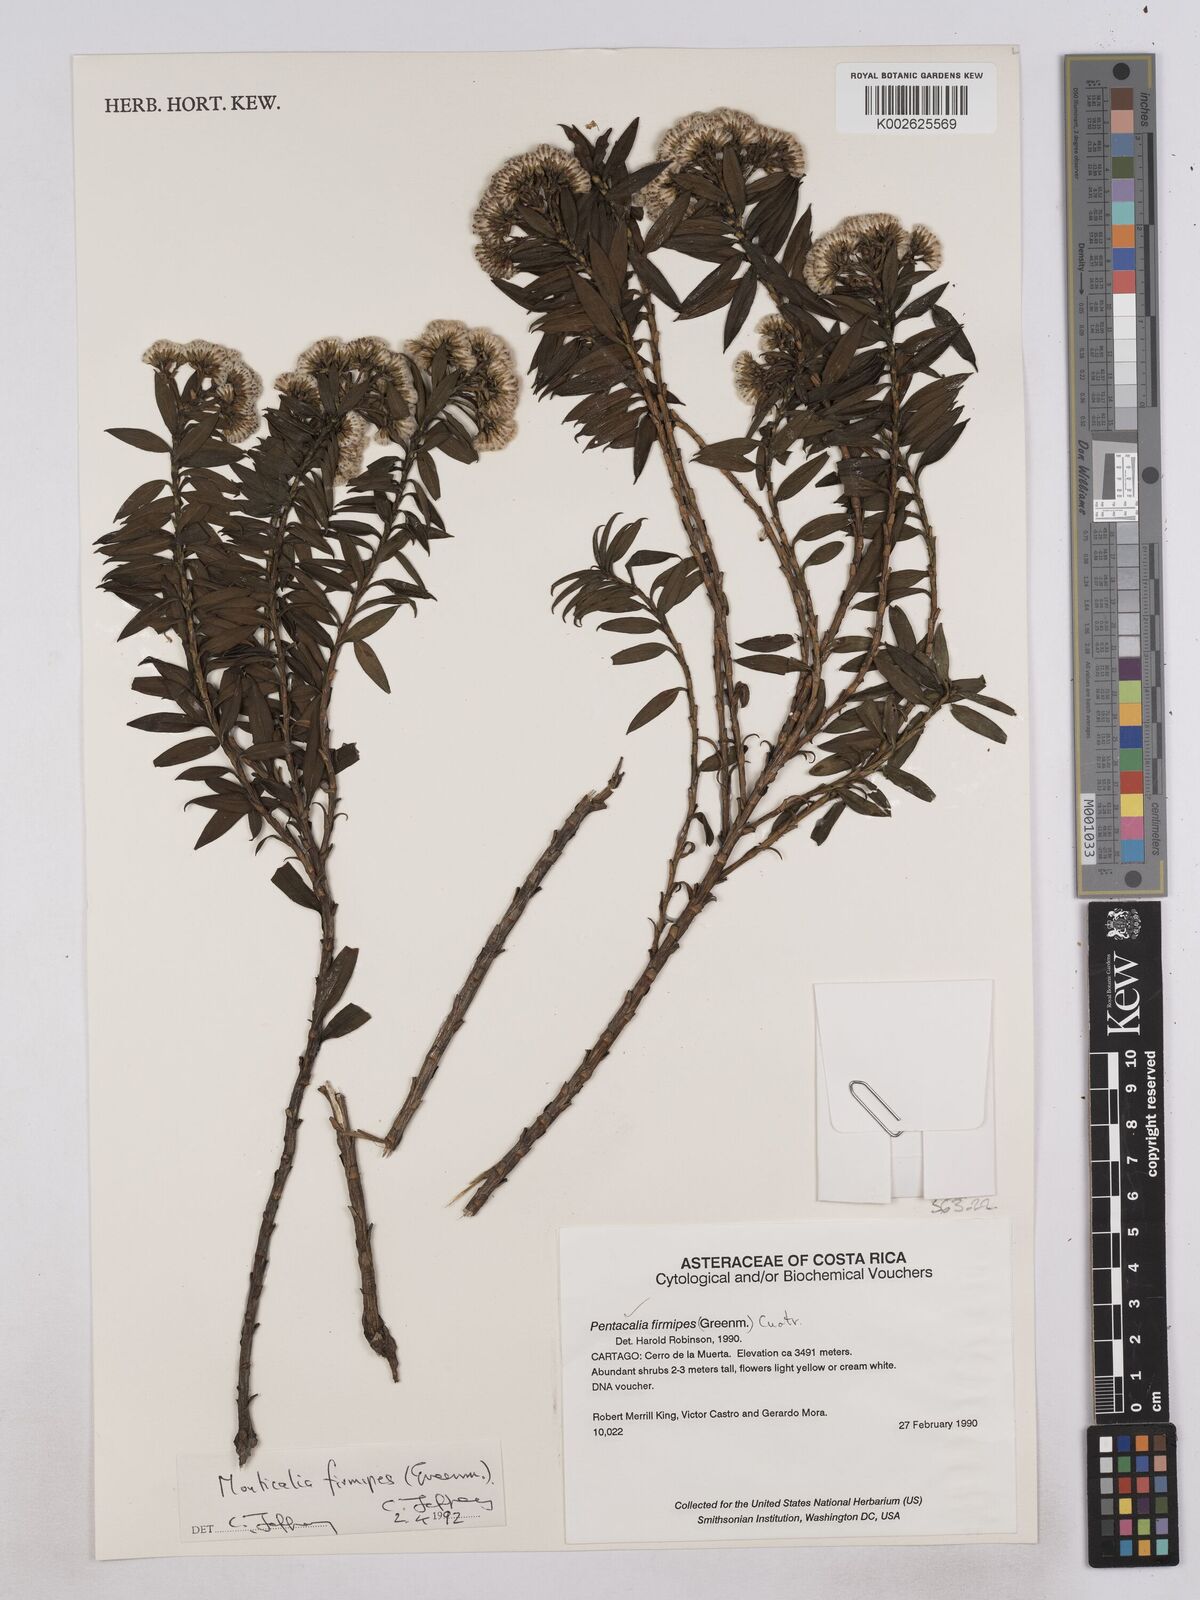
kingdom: Plantae
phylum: Tracheophyta
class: Magnoliopsida
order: Asterales
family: Asteraceae
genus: Monticalia
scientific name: Monticalia firmipes
